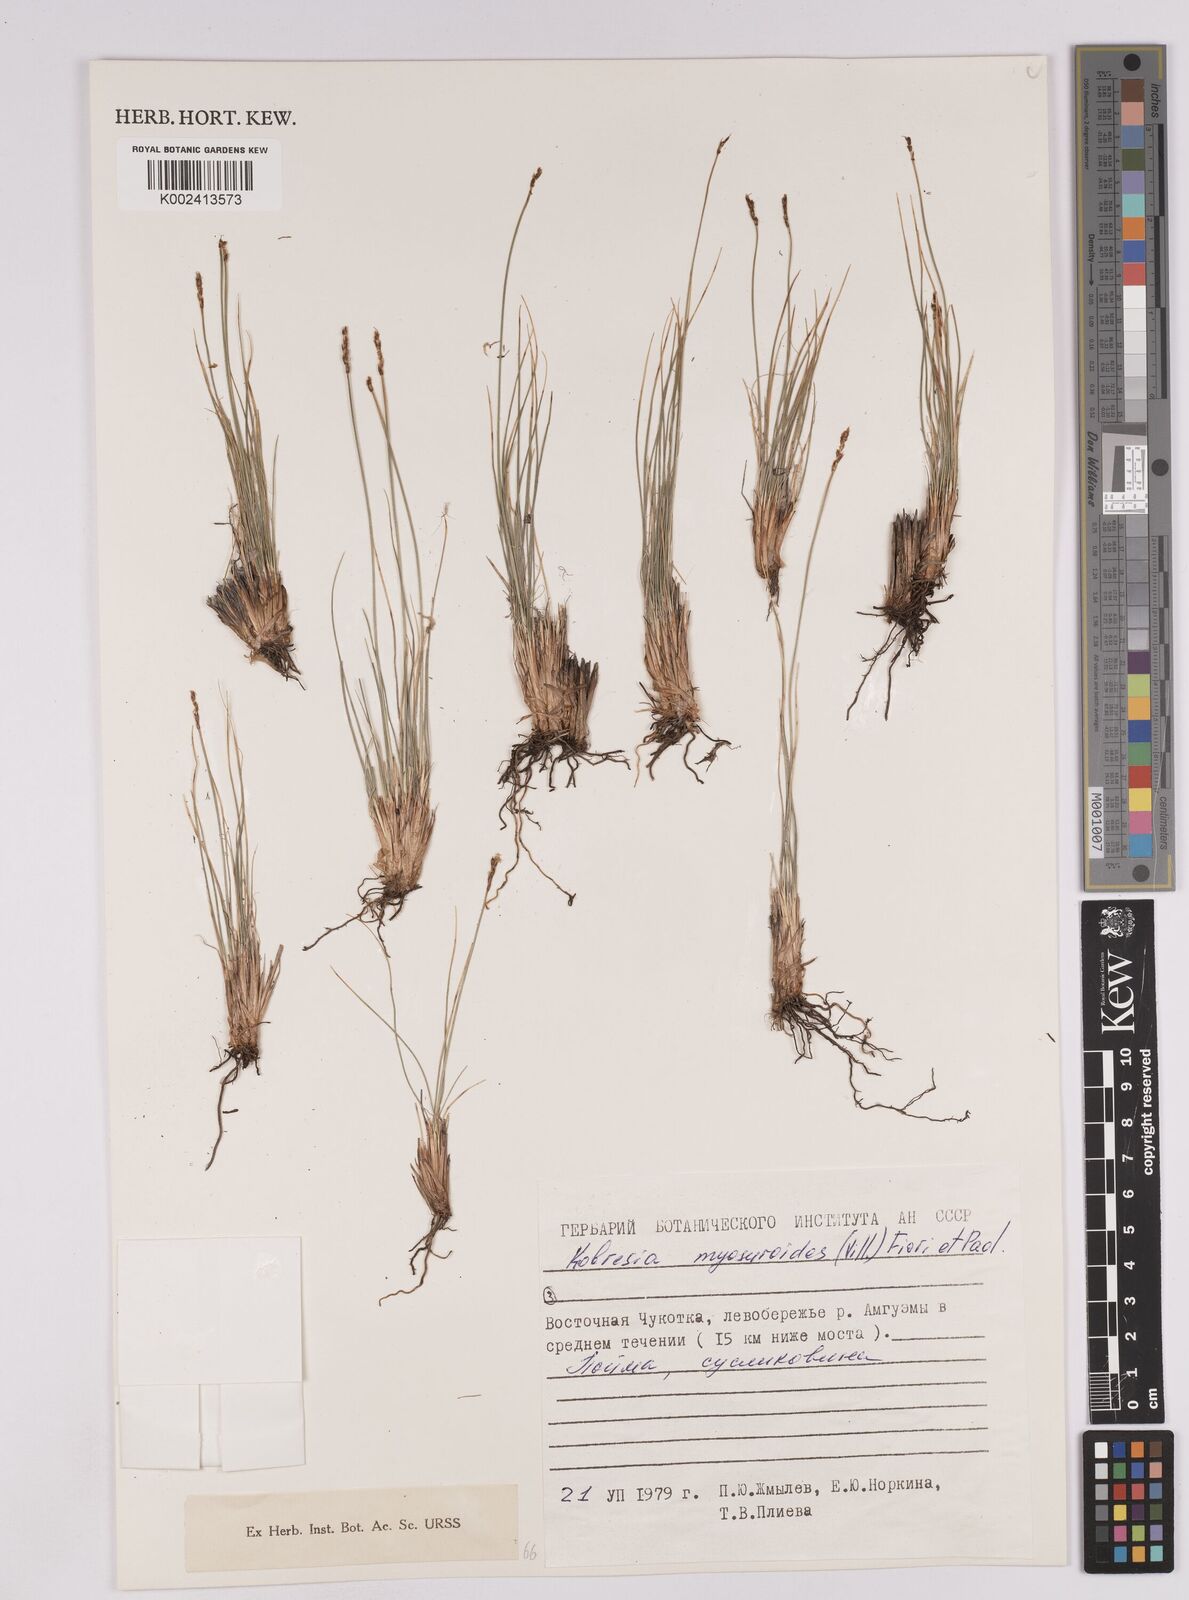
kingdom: Plantae
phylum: Tracheophyta
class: Liliopsida
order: Poales
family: Cyperaceae
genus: Carex
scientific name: Carex myosuroides
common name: Bellard's bog sedge
